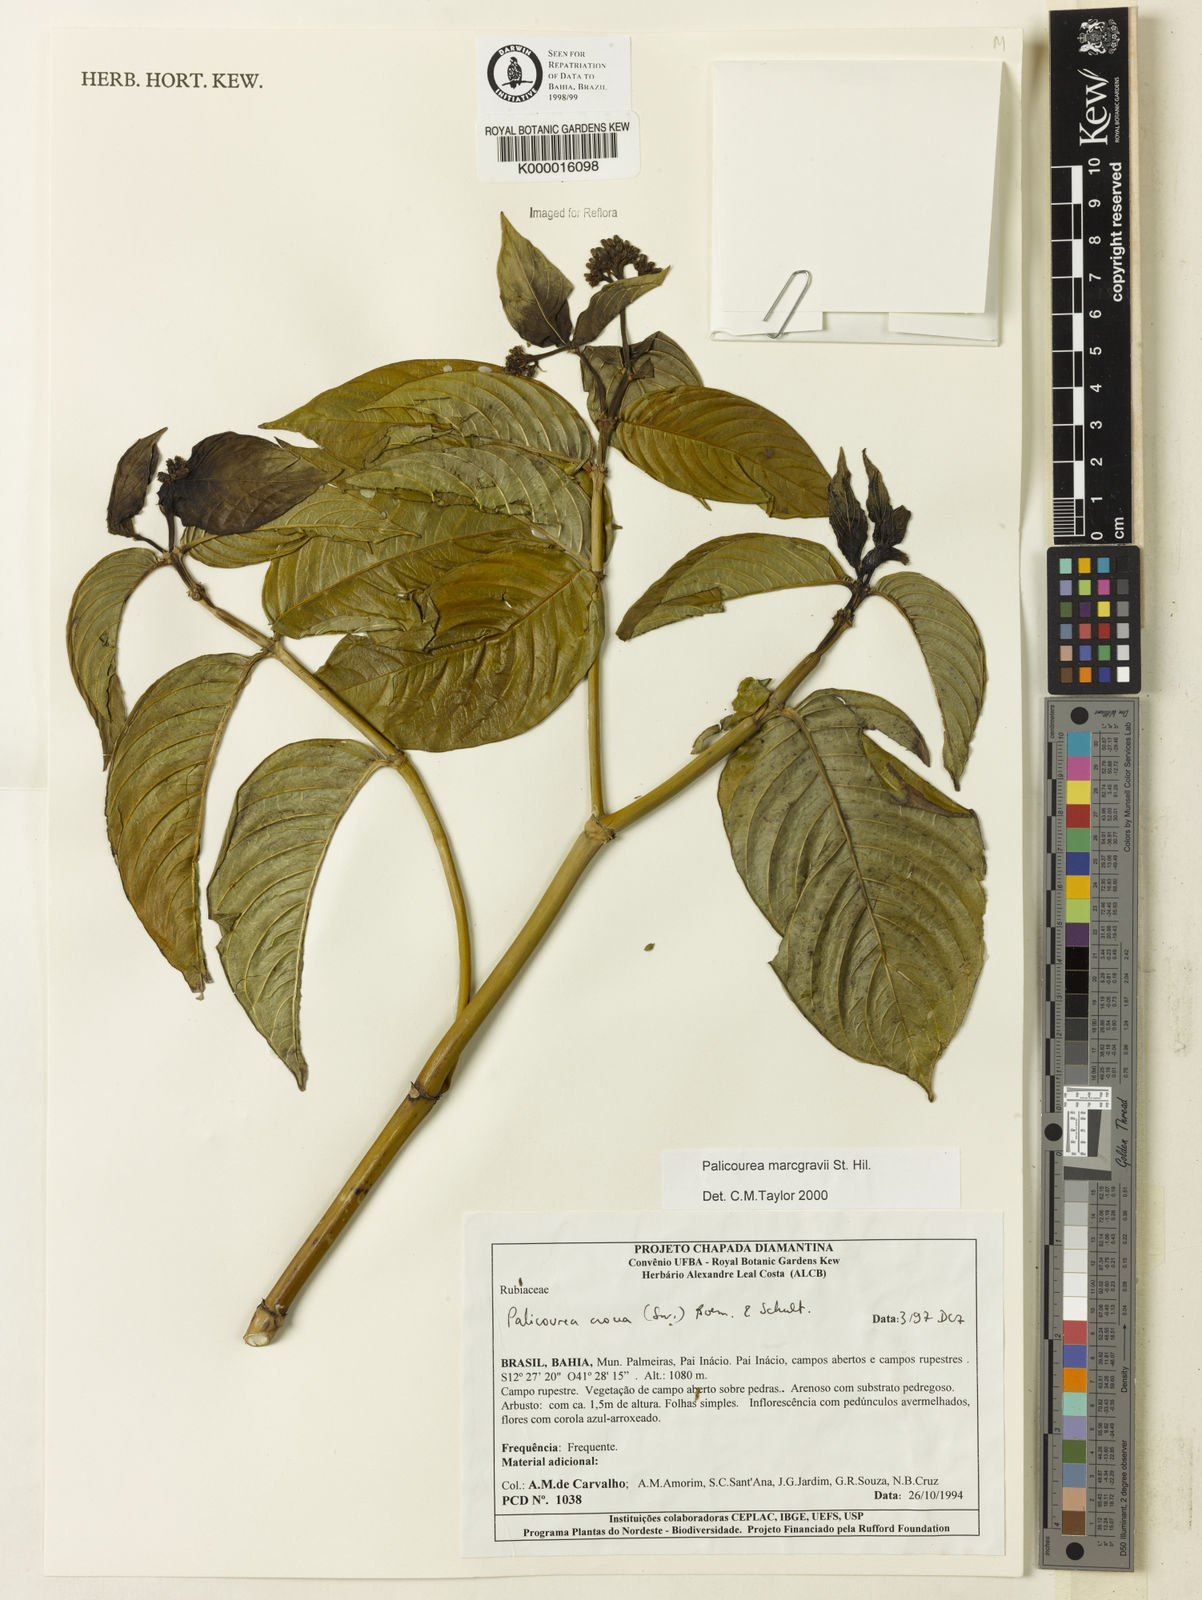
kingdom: Plantae
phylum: Tracheophyta
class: Magnoliopsida
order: Gentianales
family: Rubiaceae
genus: Palicourea
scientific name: Palicourea marcgravii
